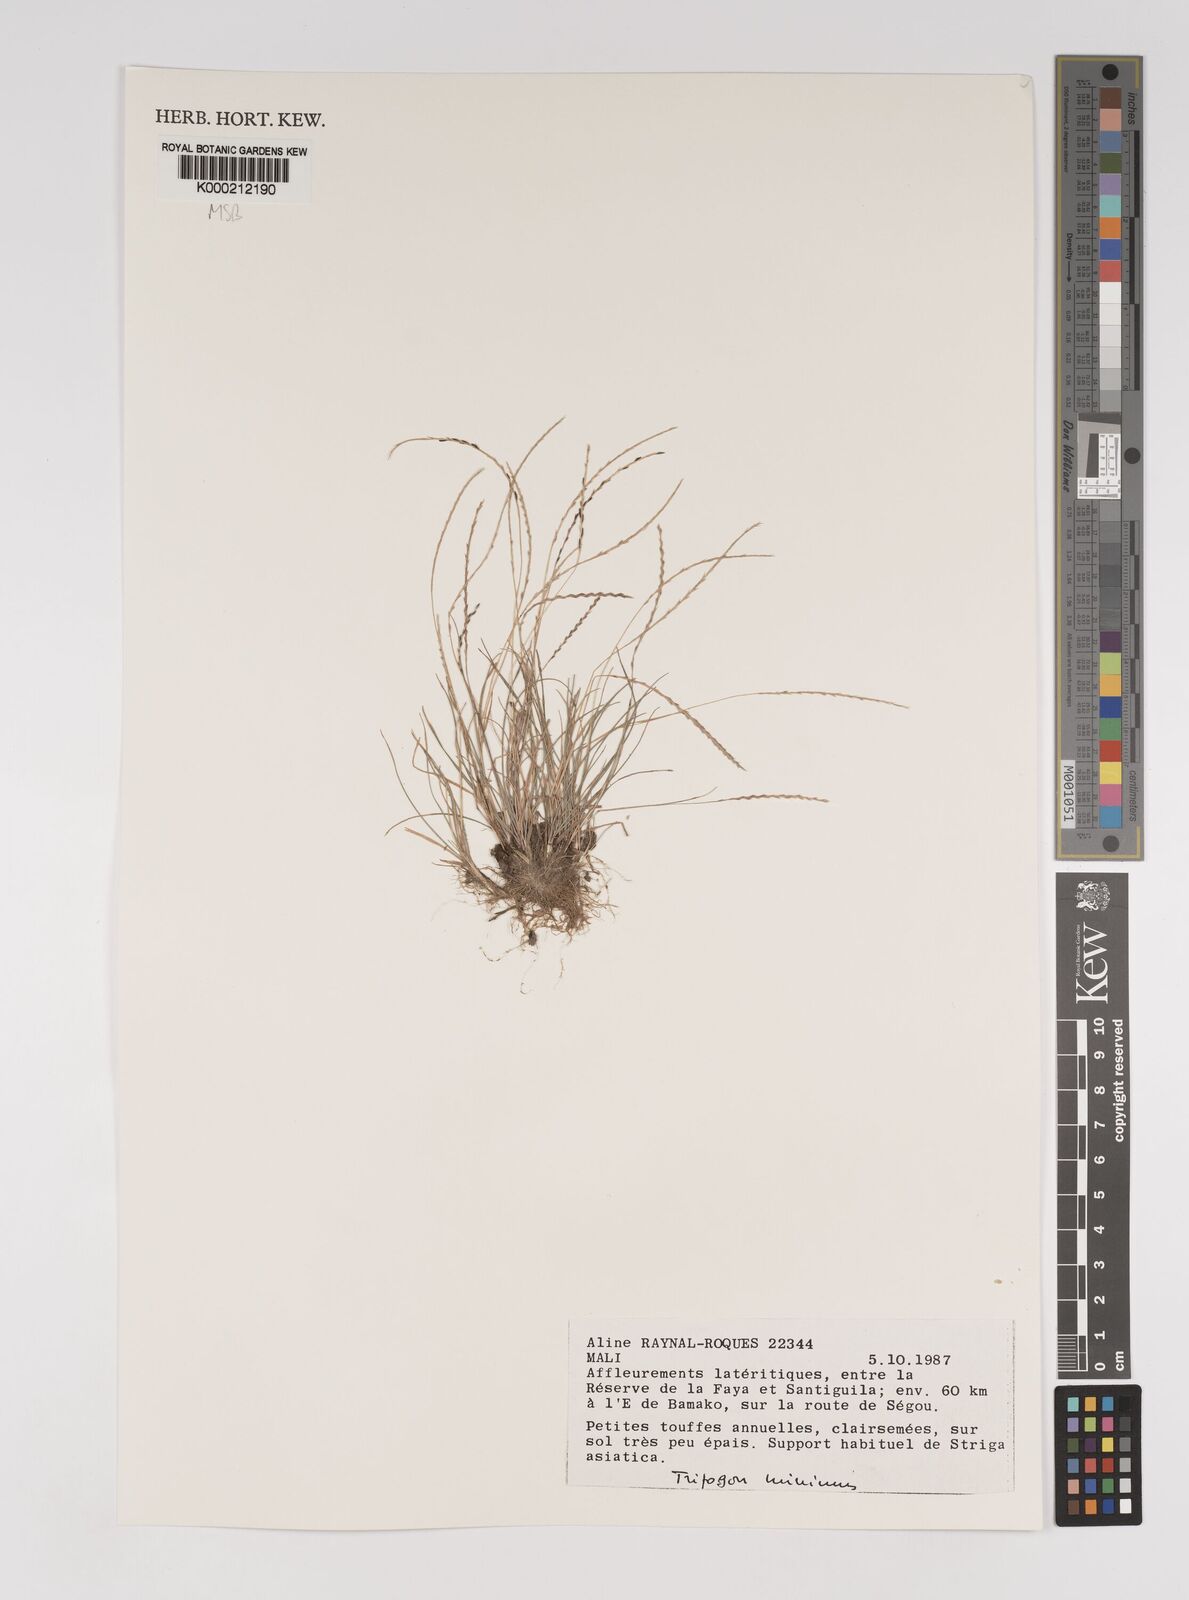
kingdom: Plantae
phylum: Tracheophyta
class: Liliopsida
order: Poales
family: Poaceae
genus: Tripogonella
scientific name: Tripogonella minima
